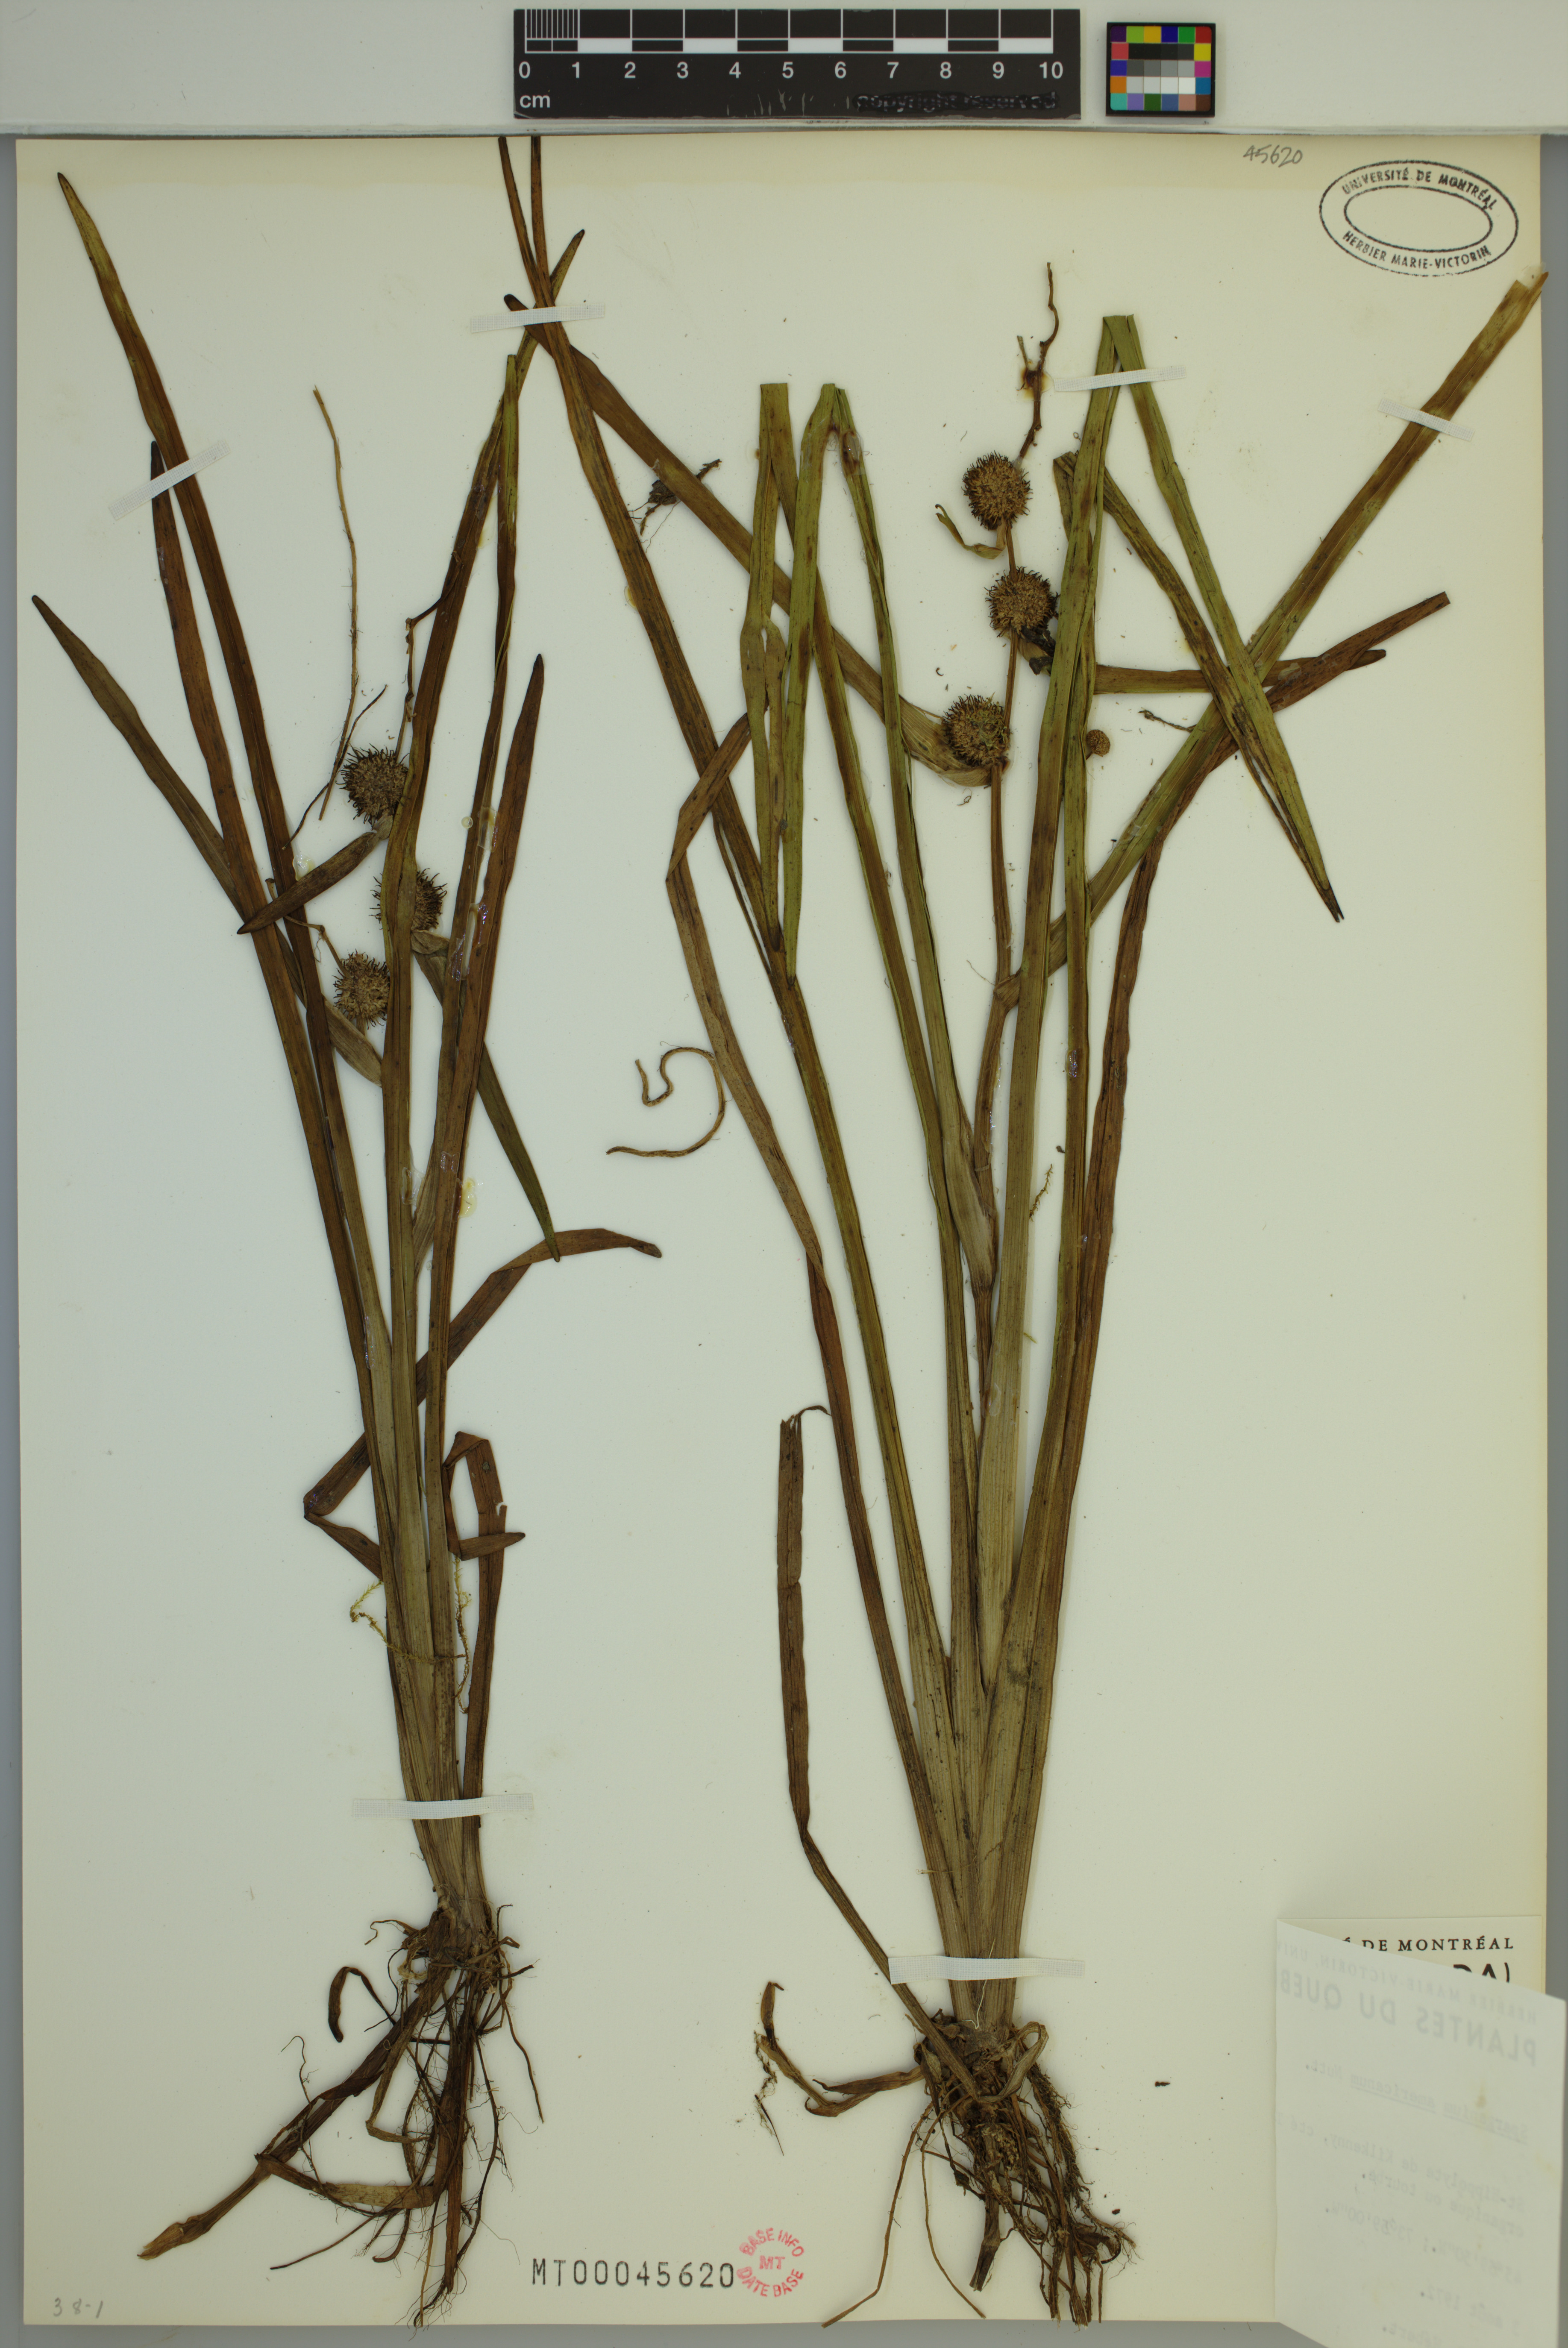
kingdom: Plantae
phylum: Tracheophyta
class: Liliopsida
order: Poales
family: Typhaceae
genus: Sparganium
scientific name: Sparganium americanum
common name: American burreed
